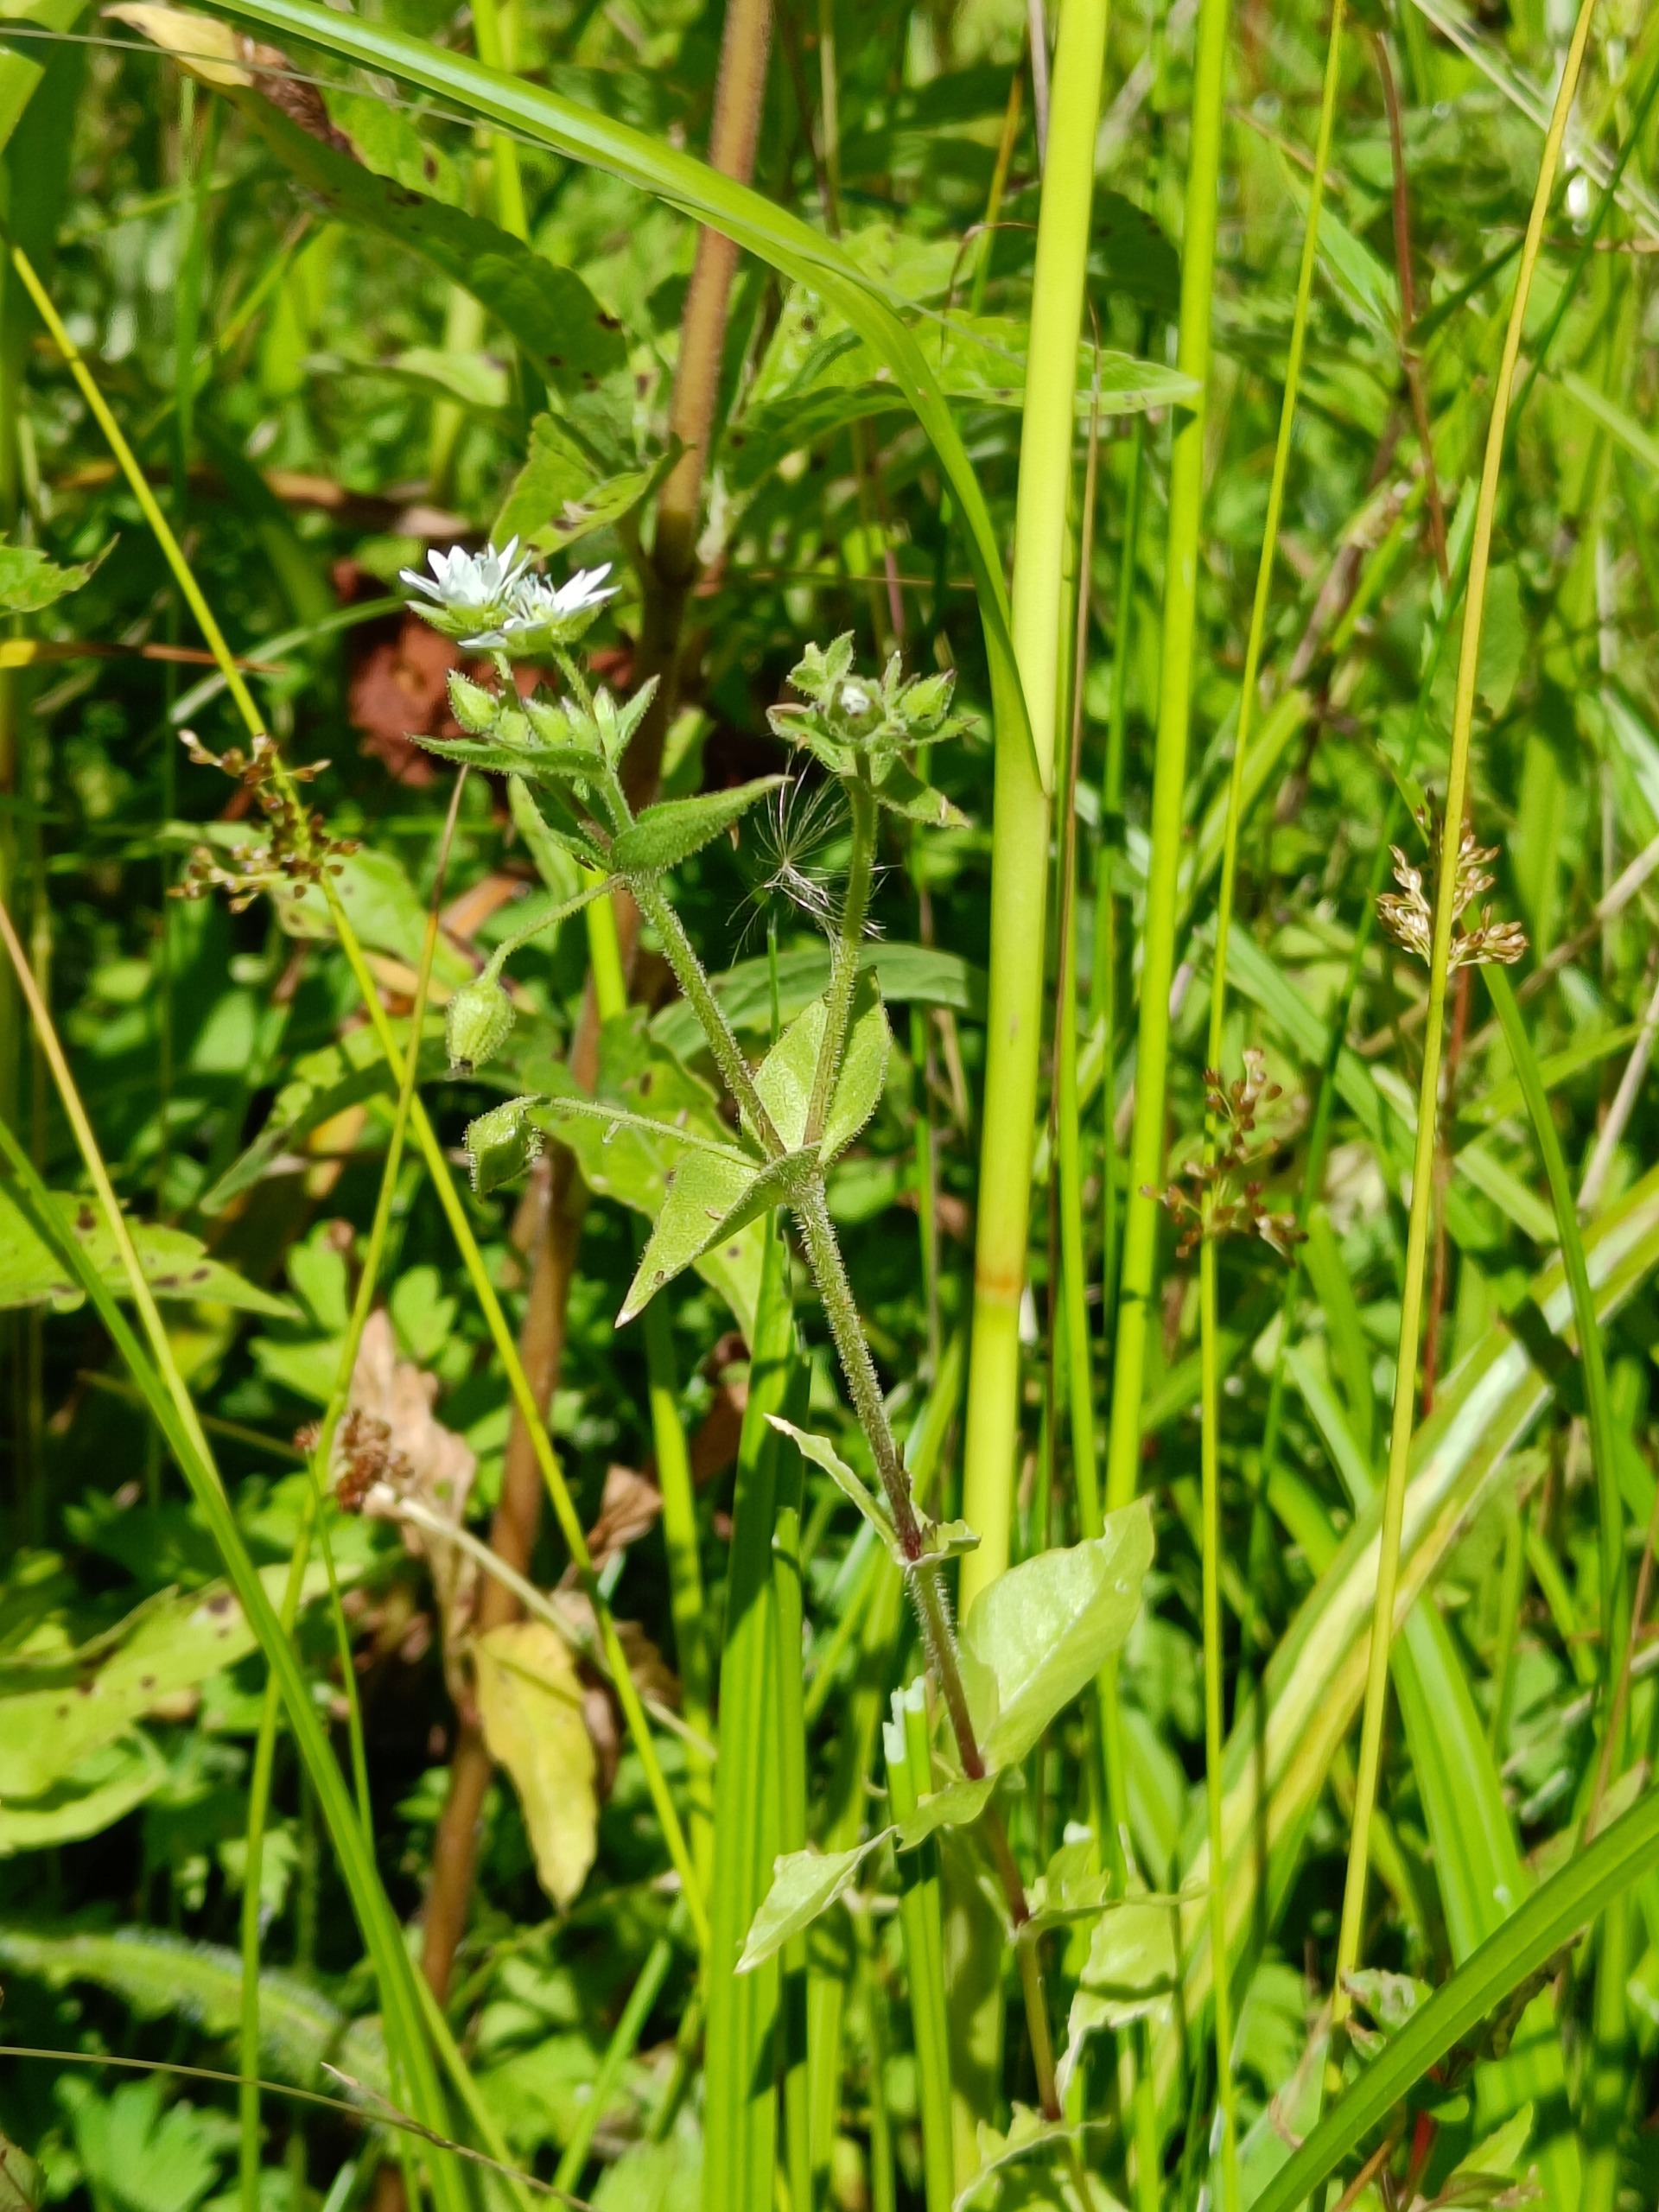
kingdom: Plantae
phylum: Tracheophyta
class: Magnoliopsida
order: Caryophyllales
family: Caryophyllaceae
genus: Stellaria
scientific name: Stellaria aquatica
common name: Kløvkrone
